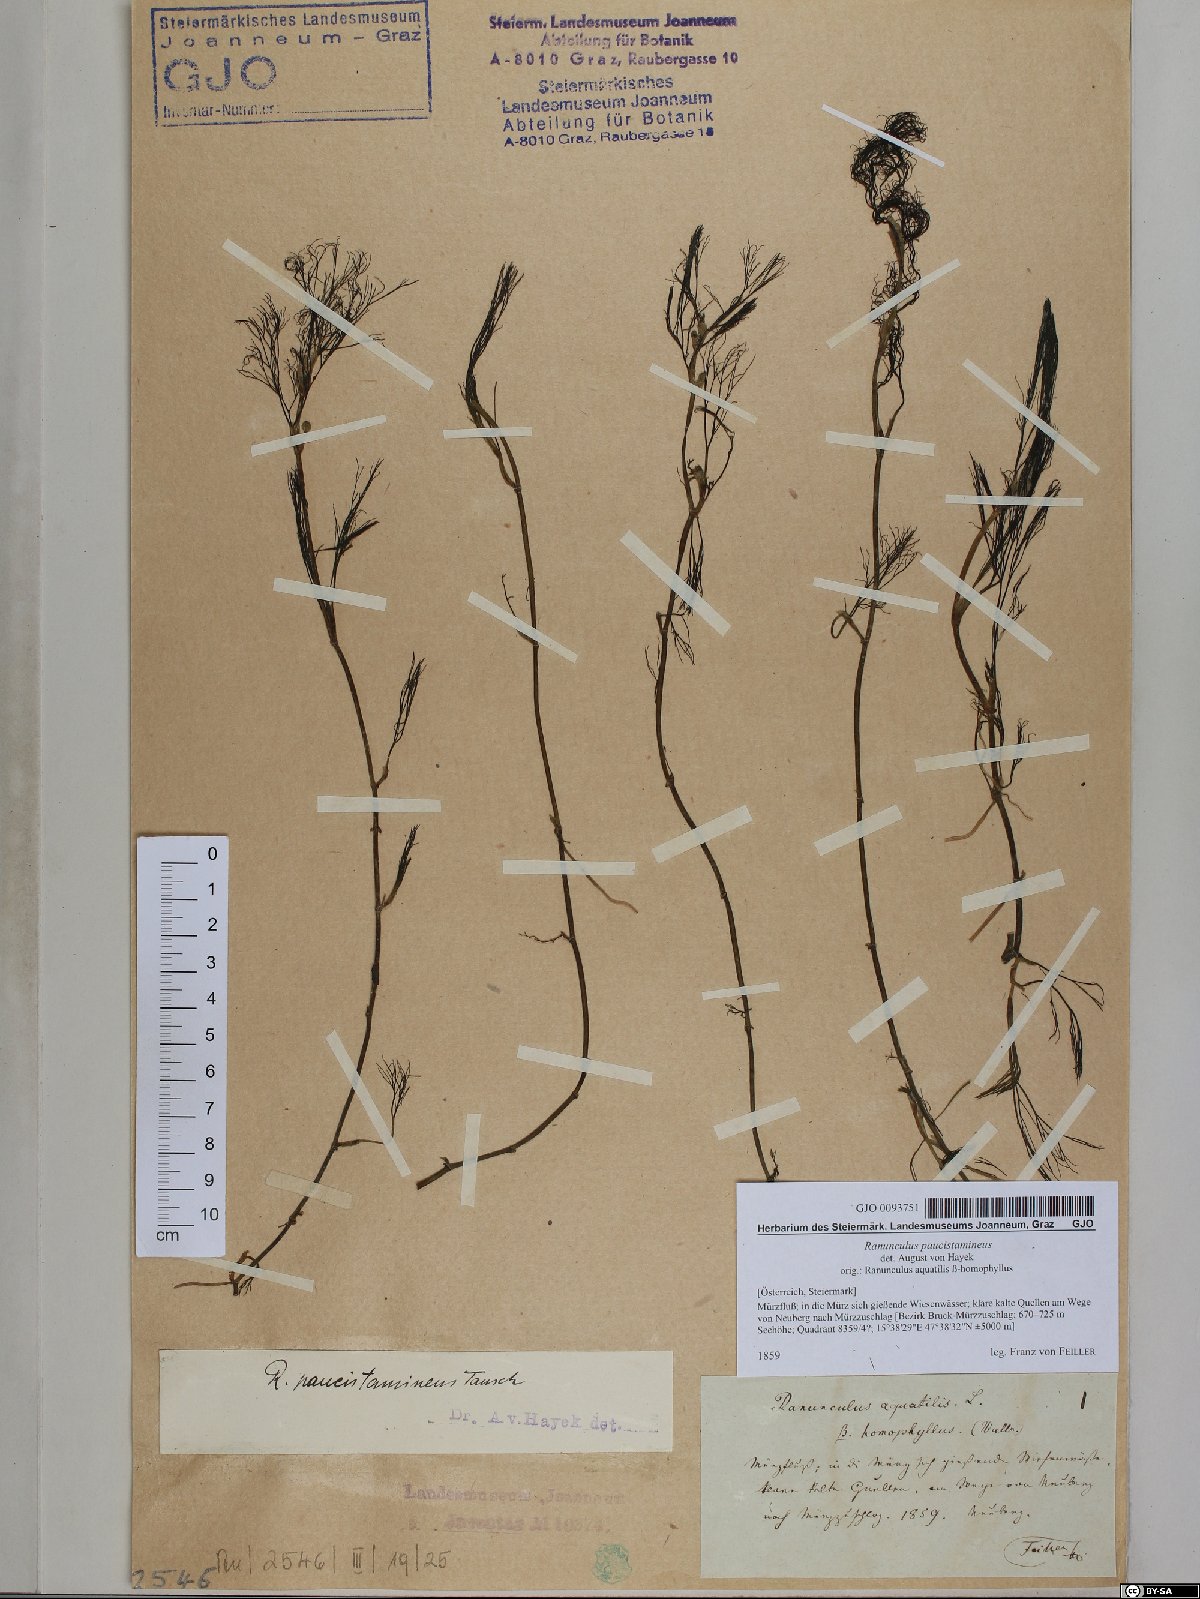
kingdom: Plantae
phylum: Tracheophyta
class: Magnoliopsida
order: Ranunculales
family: Ranunculaceae
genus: Ranunculus
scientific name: Ranunculus
